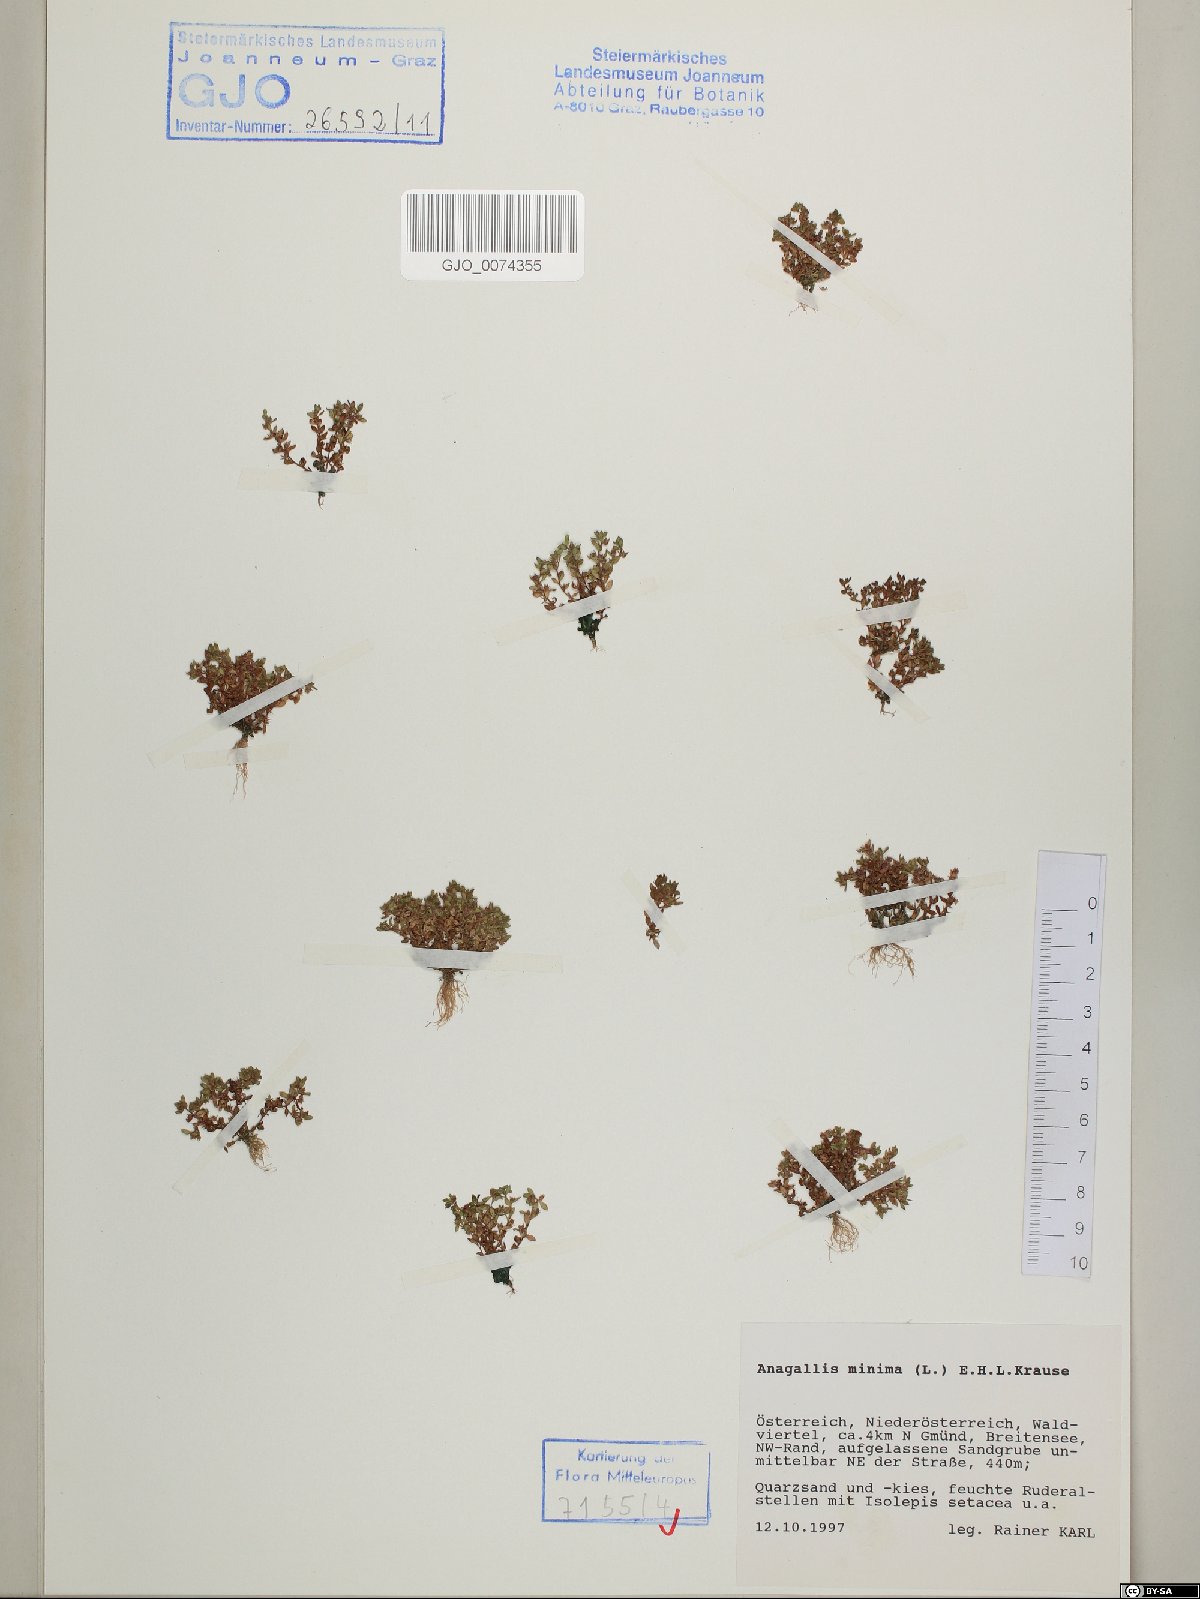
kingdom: Plantae
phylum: Tracheophyta
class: Magnoliopsida
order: Ericales
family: Primulaceae
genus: Lysimachia
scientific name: Lysimachia minima
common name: Chaffweed
